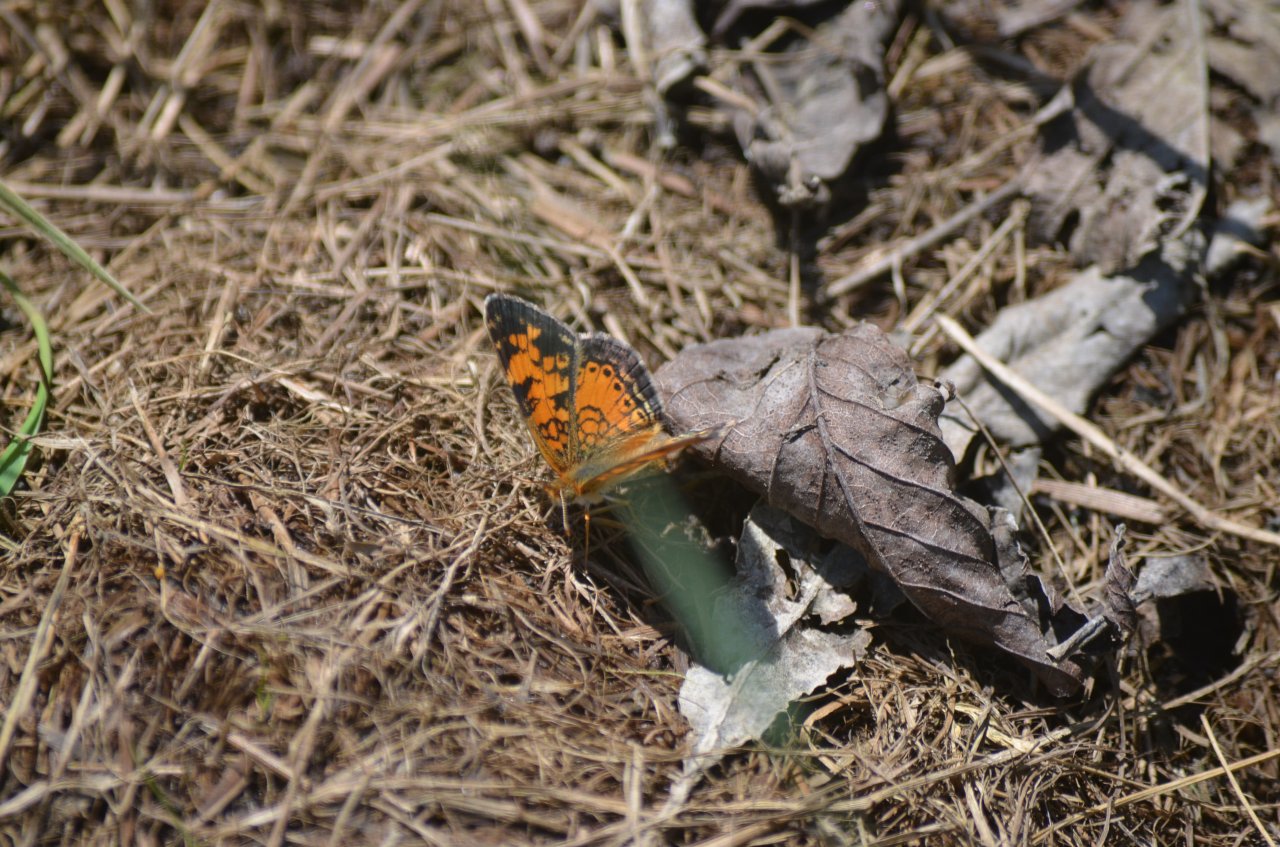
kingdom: Animalia
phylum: Arthropoda
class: Insecta
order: Lepidoptera
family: Nymphalidae
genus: Phyciodes
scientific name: Phyciodes tharos
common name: Northern Crescent
